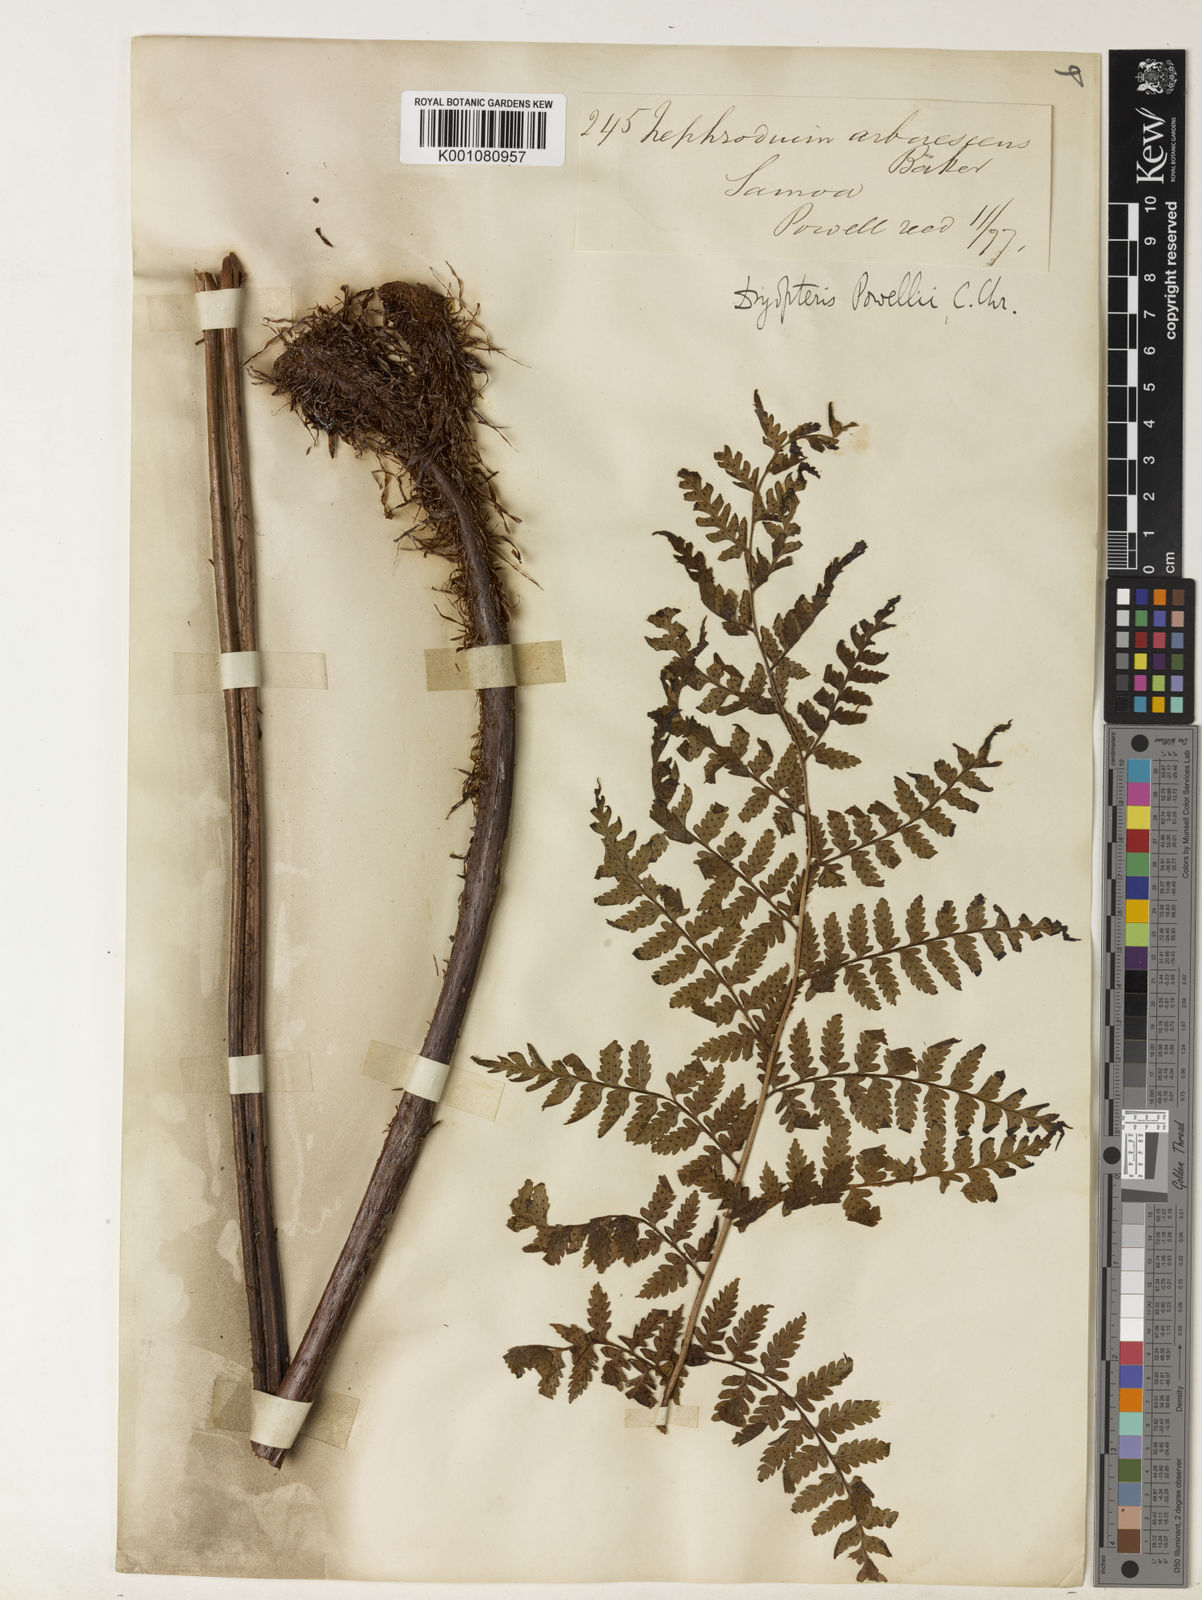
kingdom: Plantae
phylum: Tracheophyta
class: Polypodiopsida
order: Polypodiales
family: Dryopteridaceae
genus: Dryopteris
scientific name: Dryopteris arborescens
